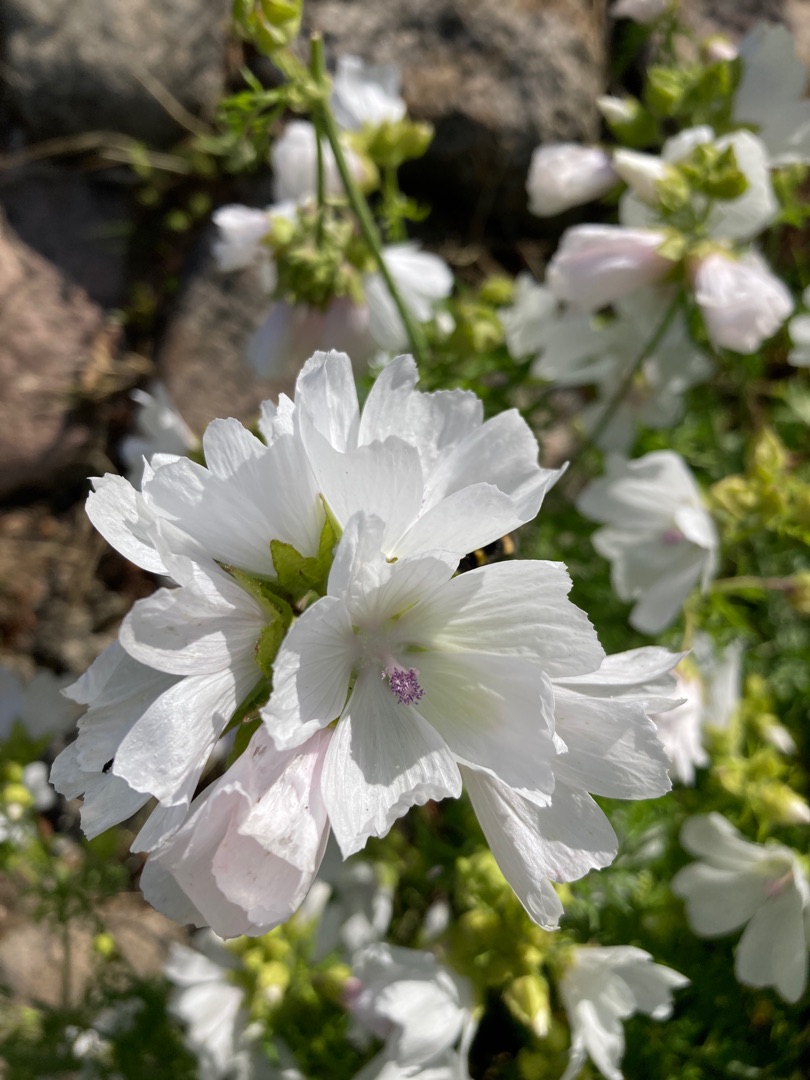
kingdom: Plantae
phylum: Tracheophyta
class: Magnoliopsida
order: Malvales
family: Malvaceae
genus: Malva
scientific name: Malva
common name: Katostslægten
